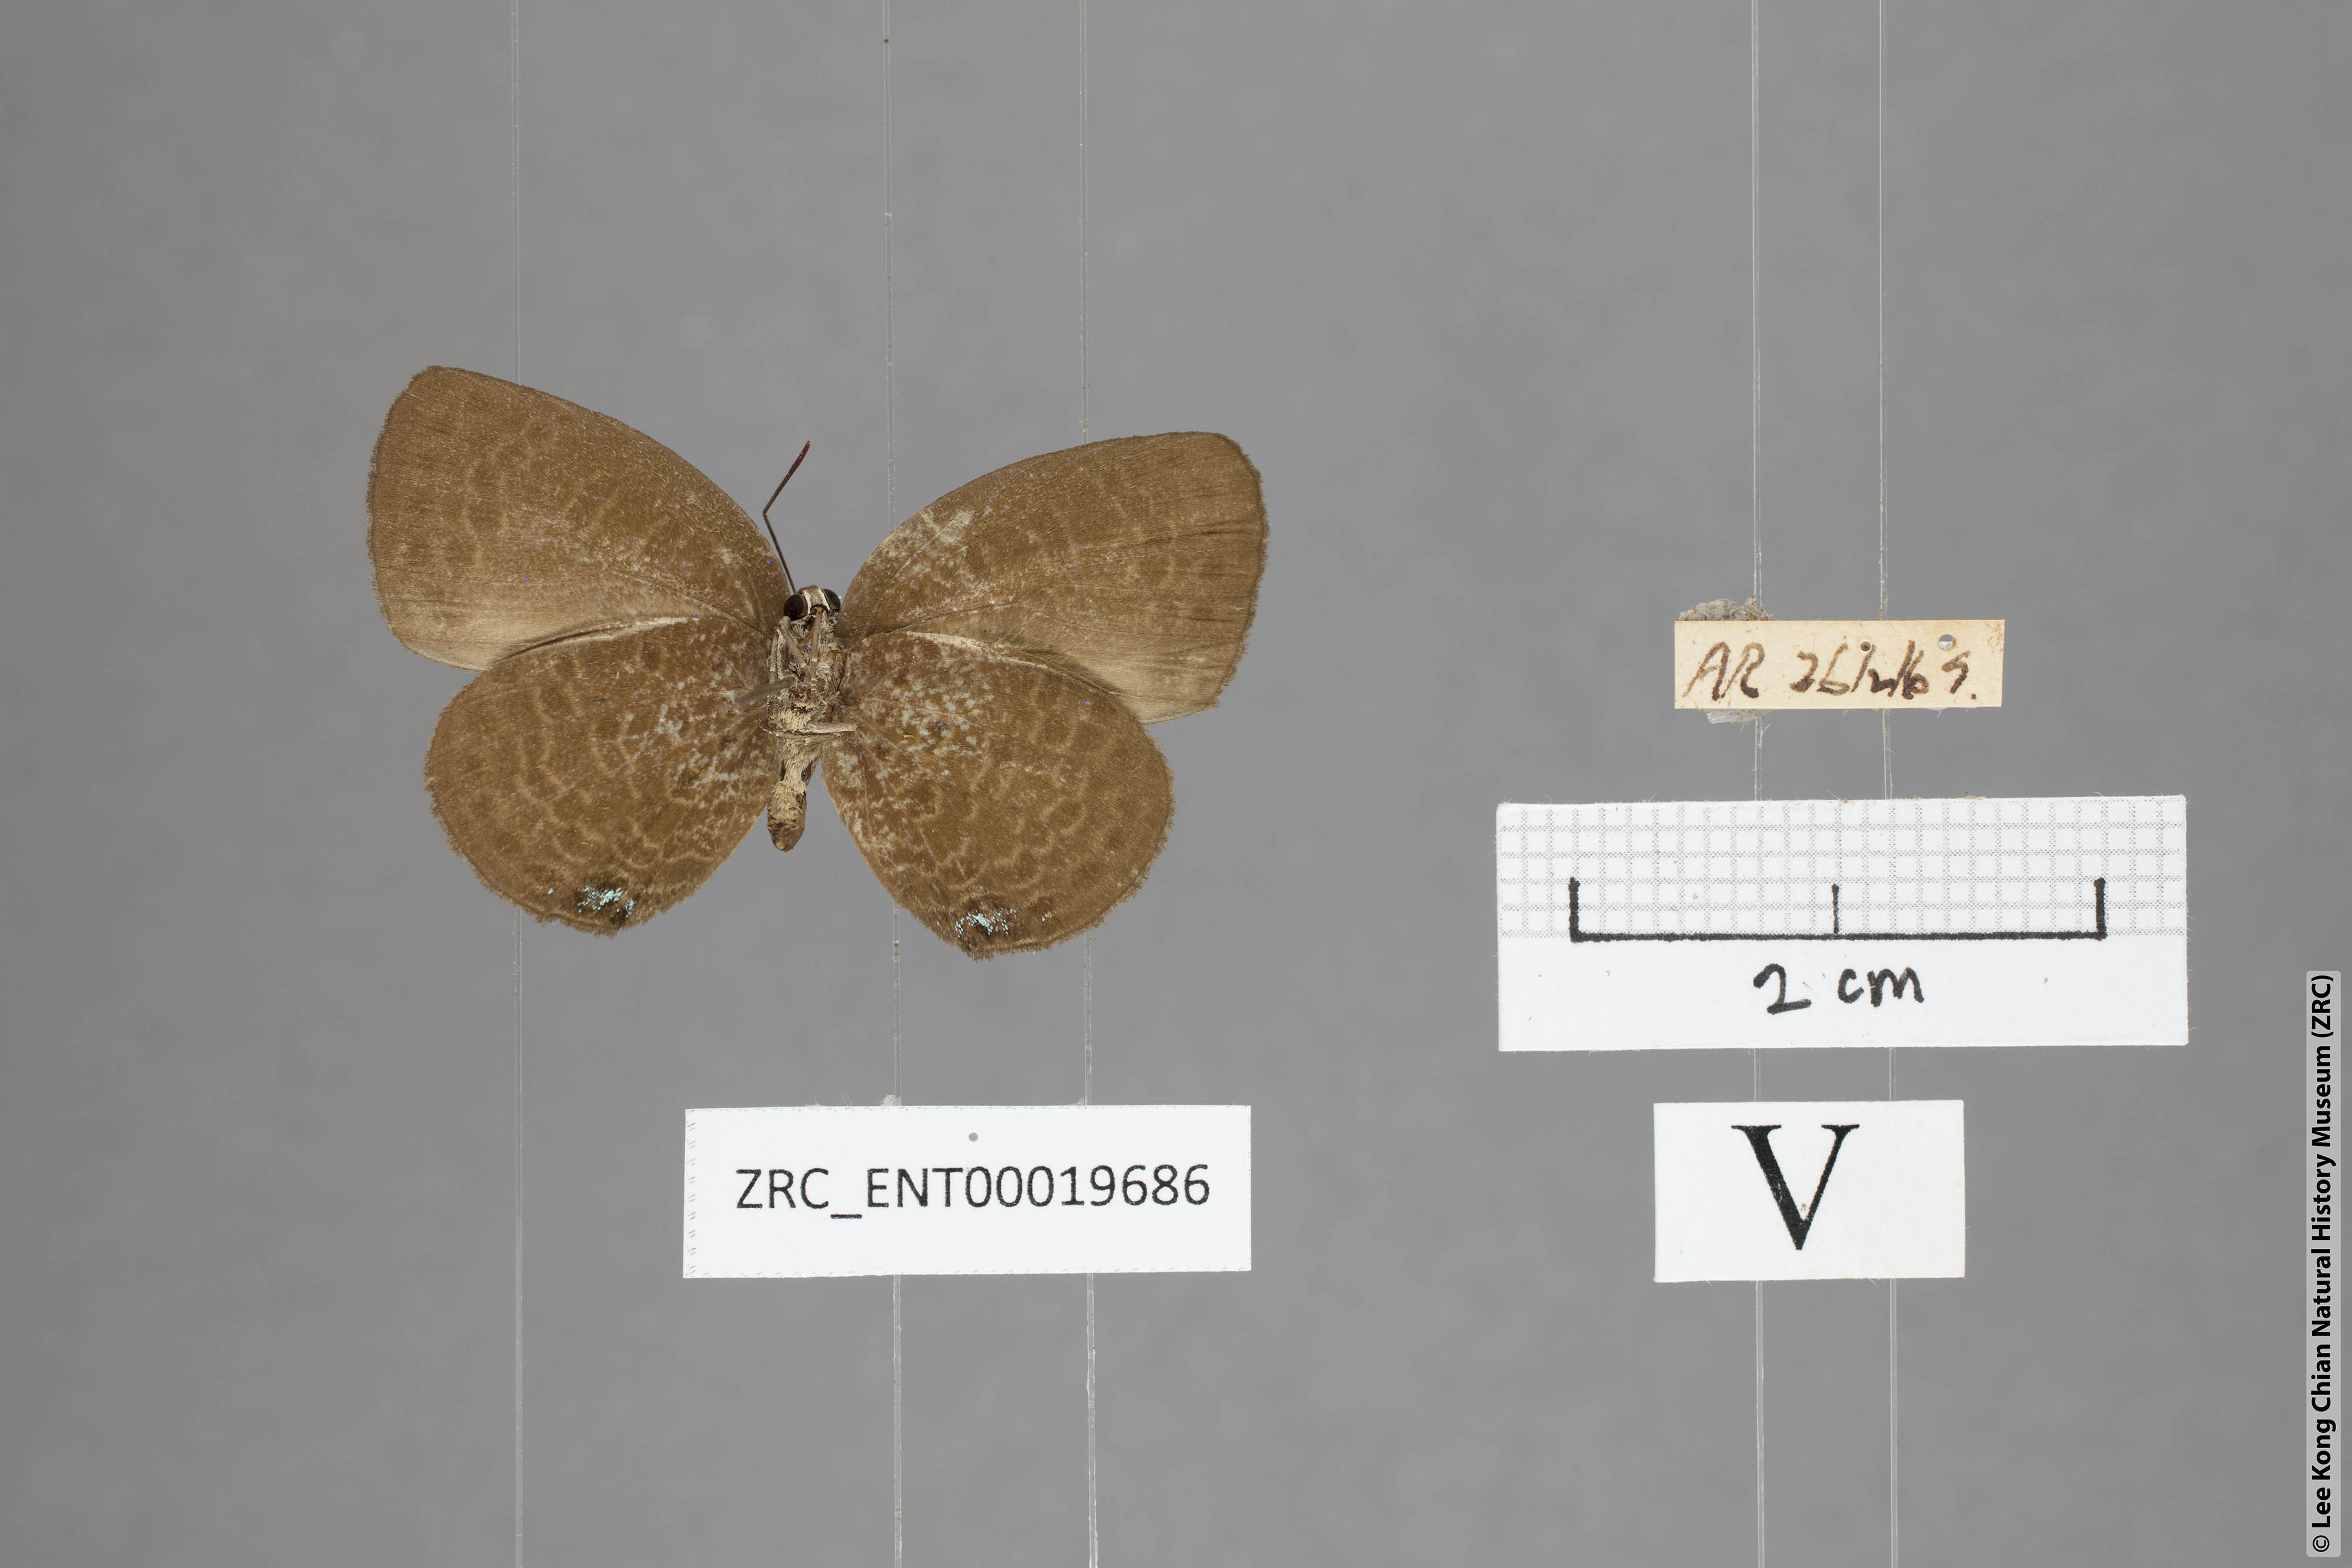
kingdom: Animalia
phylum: Arthropoda
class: Insecta
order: Lepidoptera
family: Lycaenidae
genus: Arhopala
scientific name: Arhopala moorei
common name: Moore's oakblue
